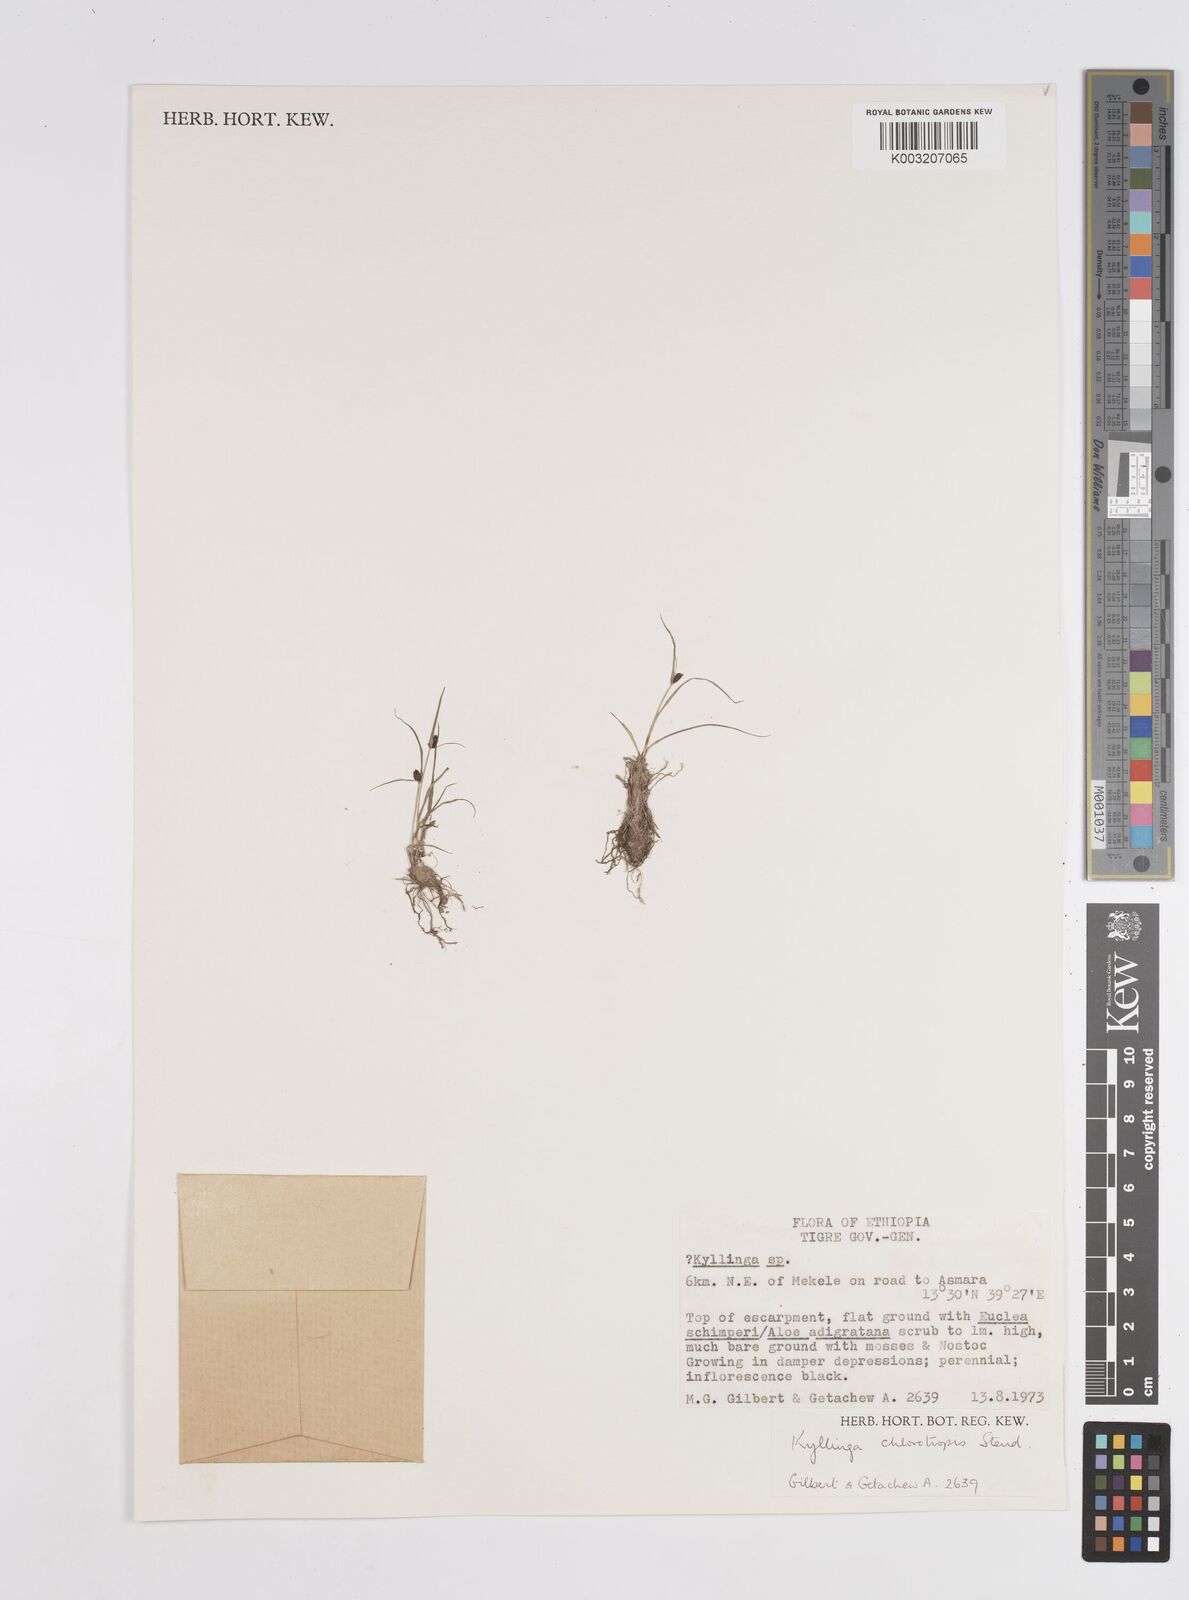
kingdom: Plantae
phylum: Tracheophyta
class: Liliopsida
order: Poales
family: Cyperaceae
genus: Cyperus
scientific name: Cyperus chlorotropis
